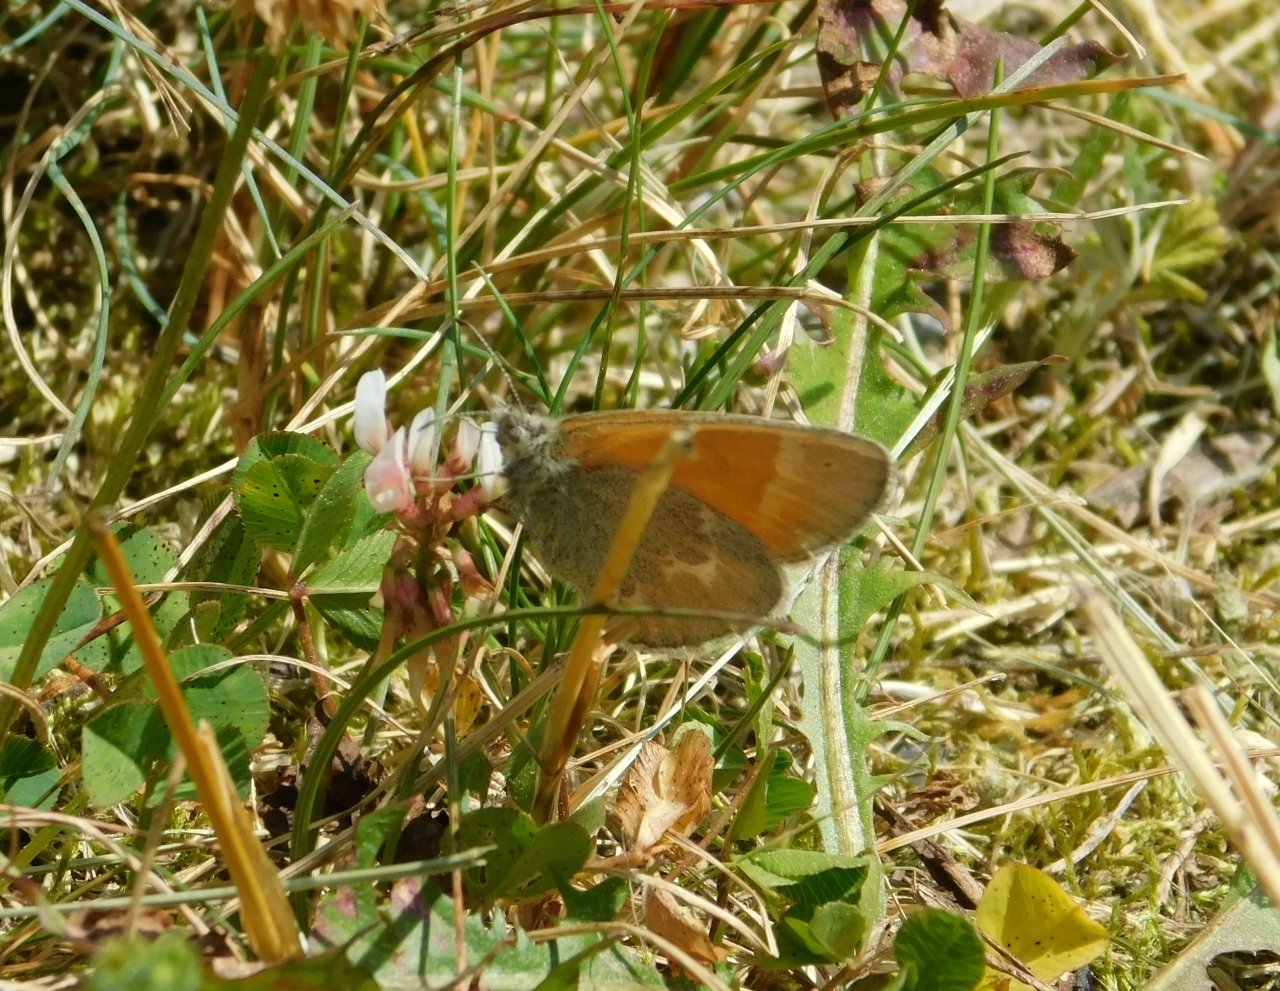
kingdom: Animalia
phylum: Arthropoda
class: Insecta
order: Lepidoptera
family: Nymphalidae
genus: Coenonympha
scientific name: Coenonympha tullia
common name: Large Heath
